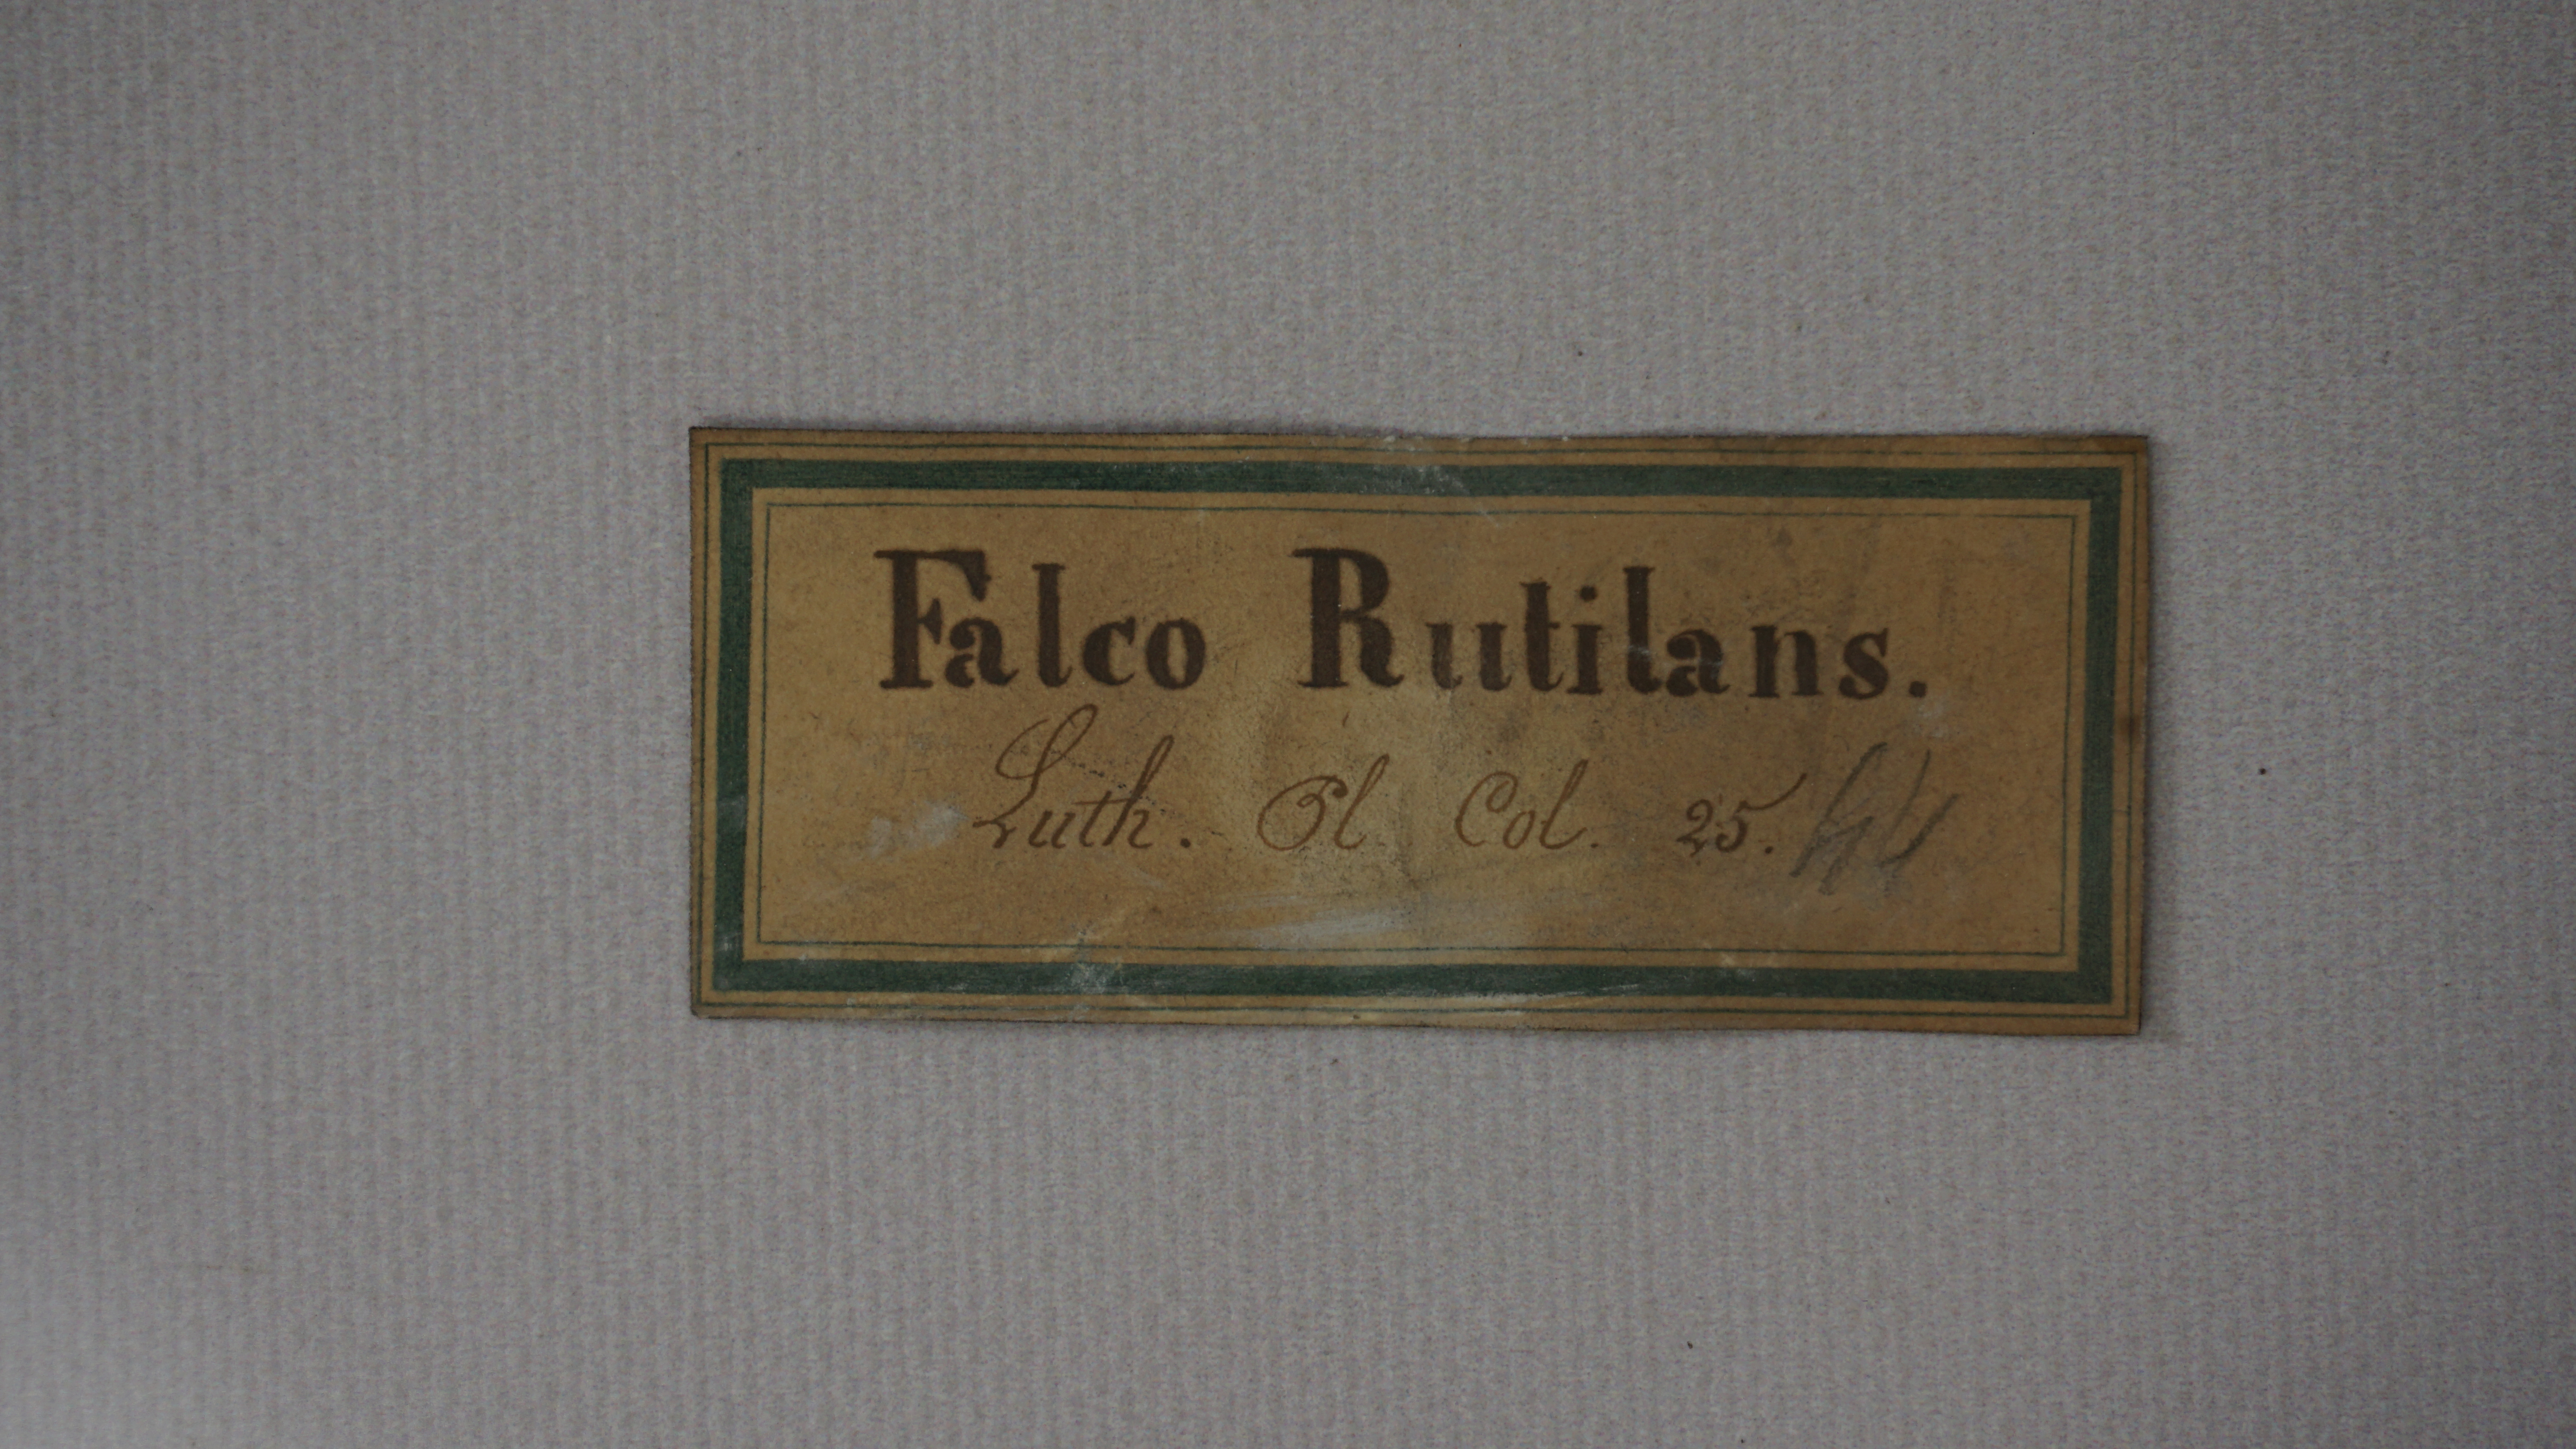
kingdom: Animalia
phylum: Chordata
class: Aves
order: Accipitriformes
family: Accipitridae
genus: Spilornis
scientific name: Spilornis cheela
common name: Crested serpent eagle
